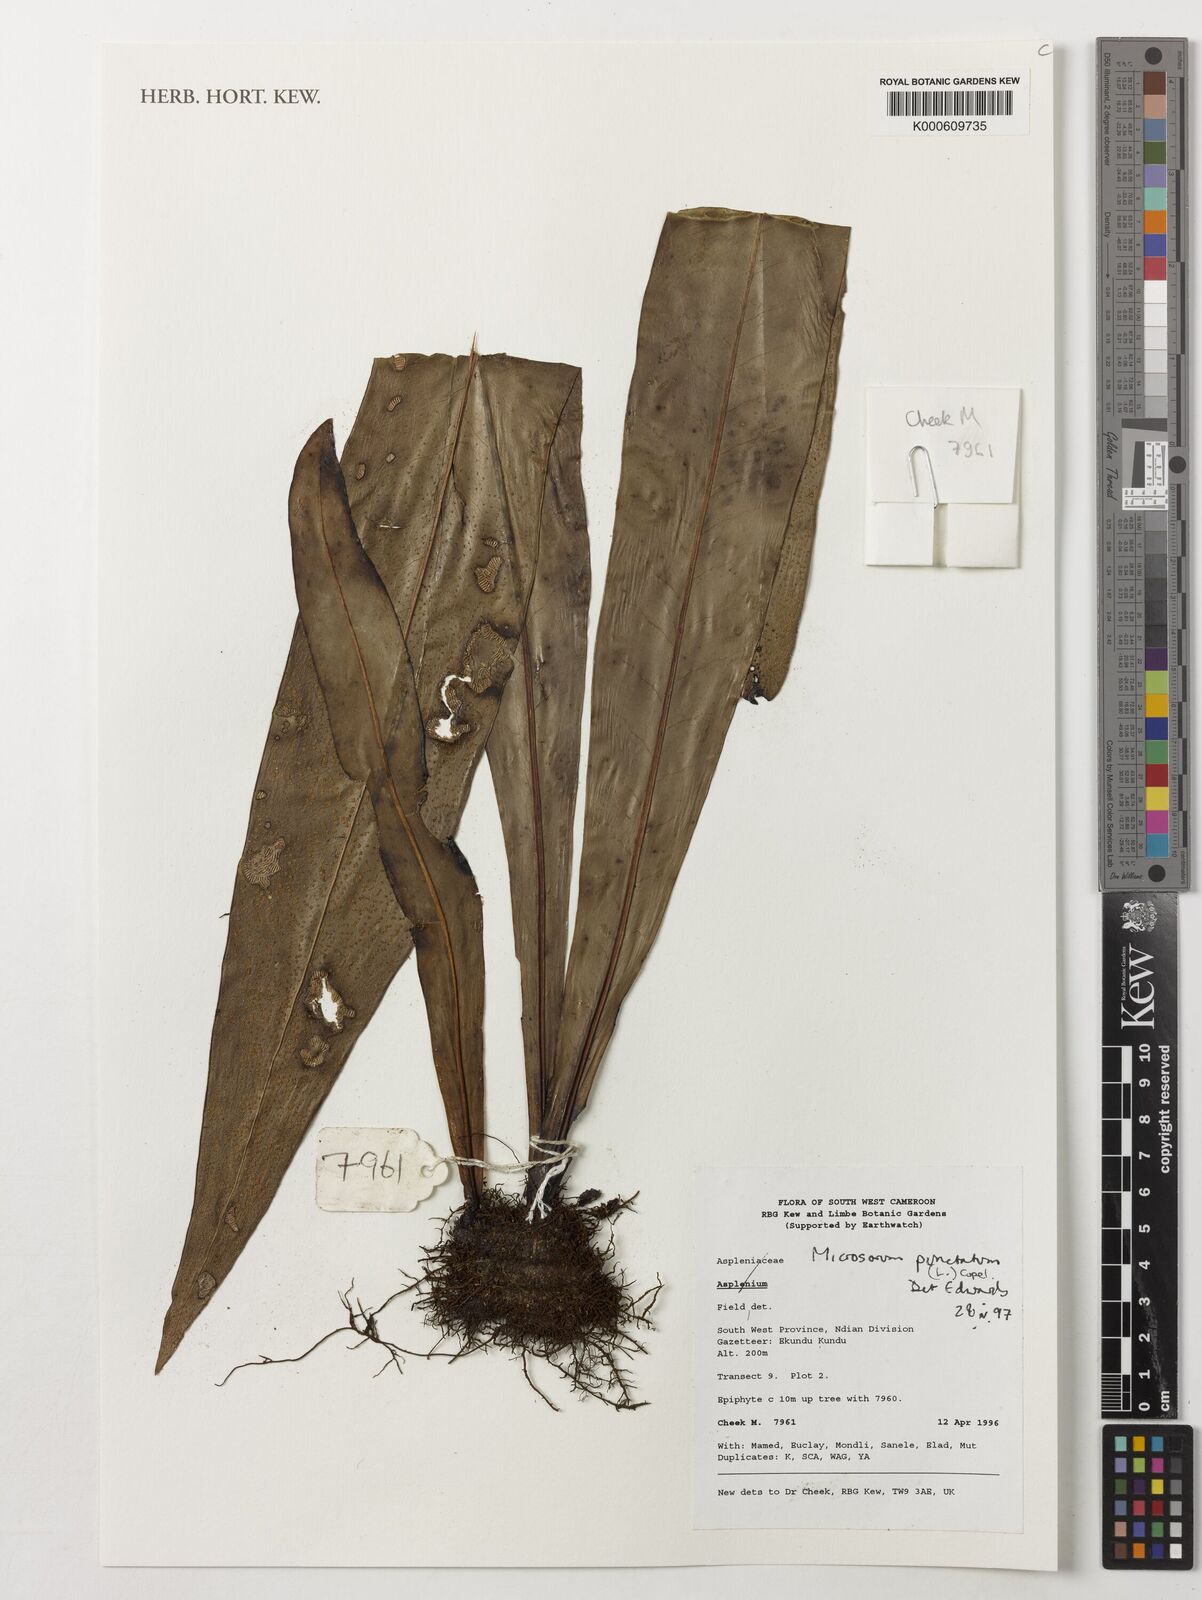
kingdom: Plantae
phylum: Tracheophyta
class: Polypodiopsida
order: Polypodiales
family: Polypodiaceae
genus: Microsorum
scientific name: Microsorum
